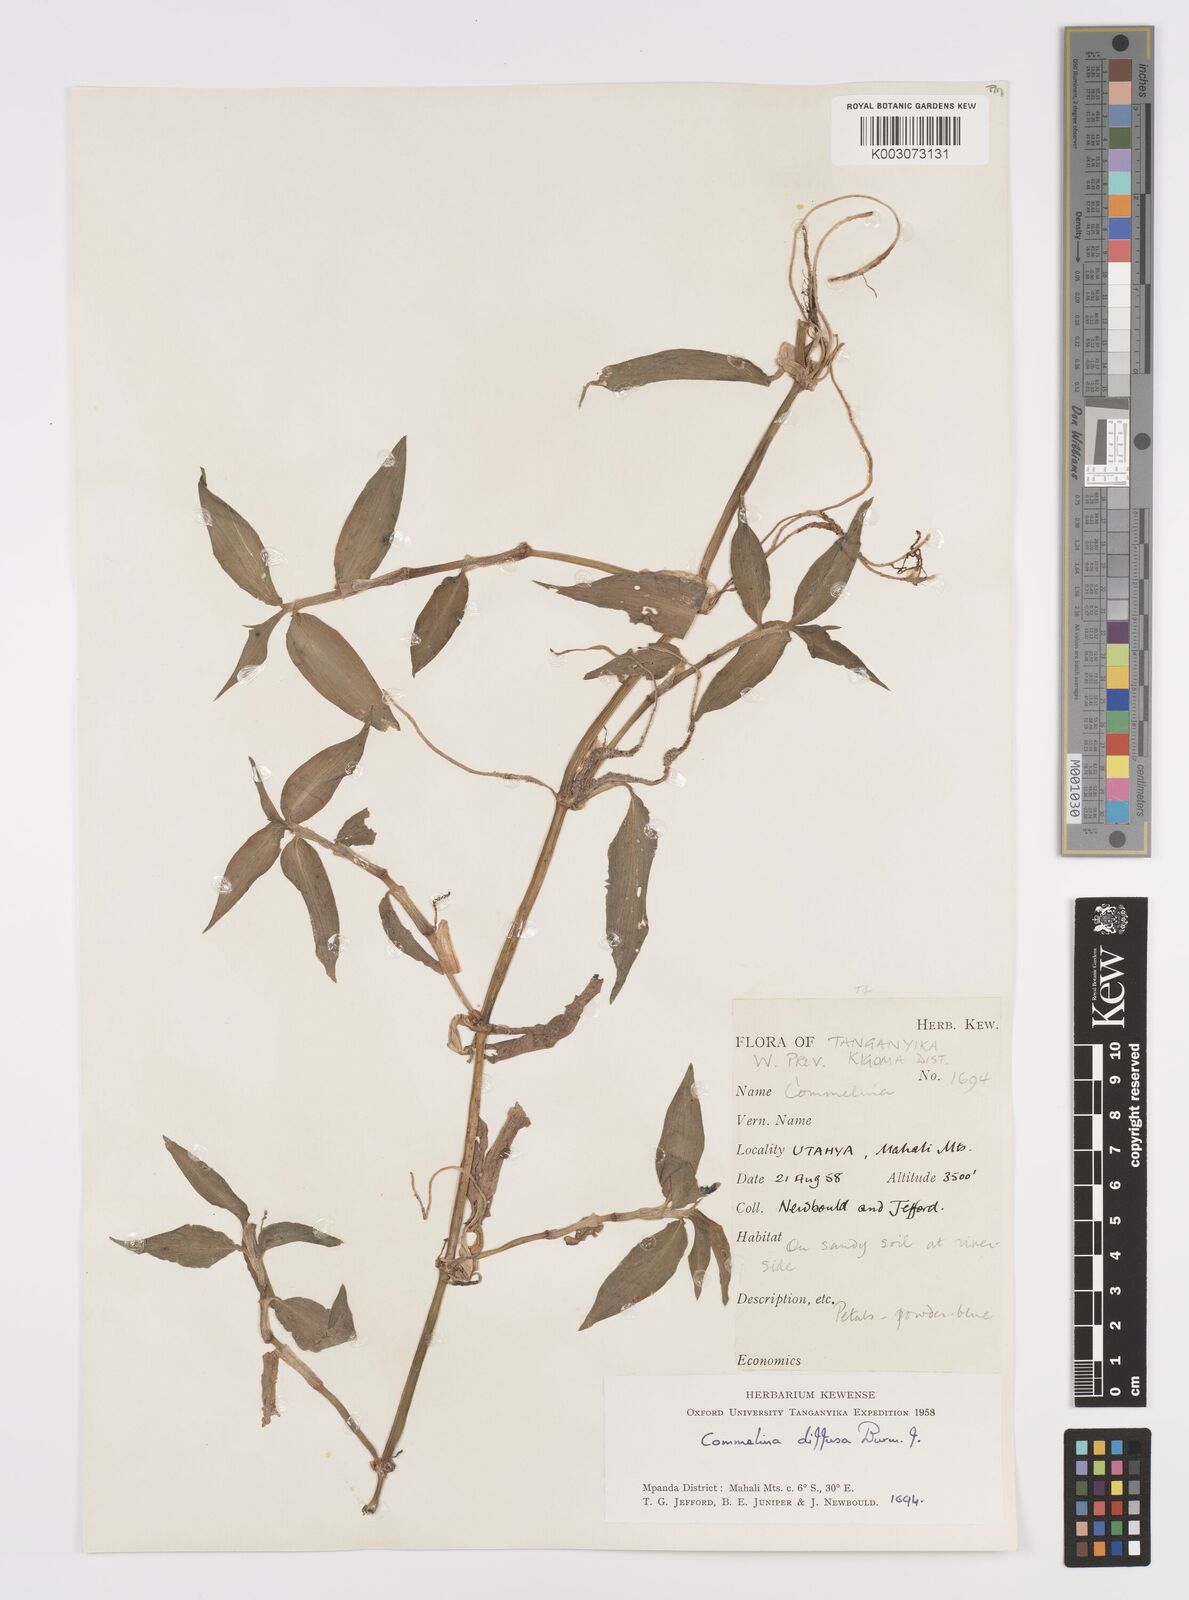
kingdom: Plantae
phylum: Tracheophyta
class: Liliopsida
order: Commelinales
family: Commelinaceae
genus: Commelina
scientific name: Commelina diffusa
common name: Climbing dayflower
